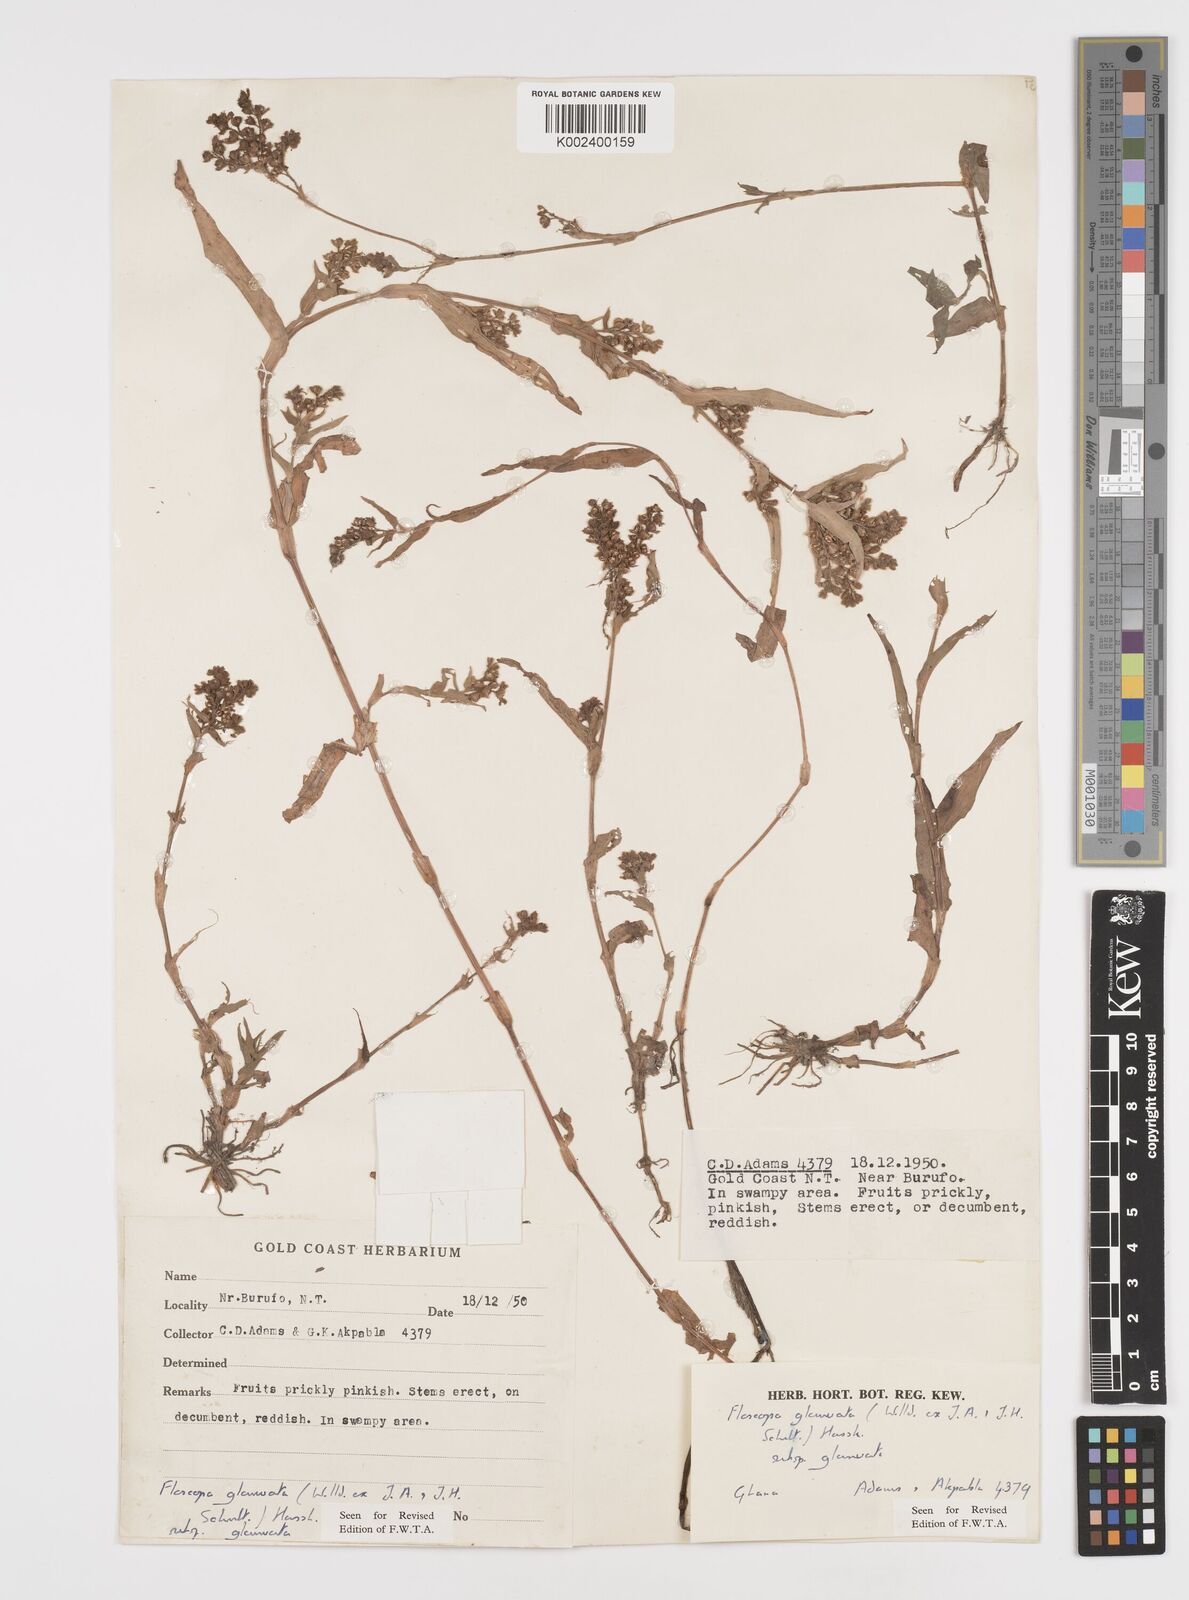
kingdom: Plantae
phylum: Tracheophyta
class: Liliopsida
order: Commelinales
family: Commelinaceae
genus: Floscopa
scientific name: Floscopa glomerata
